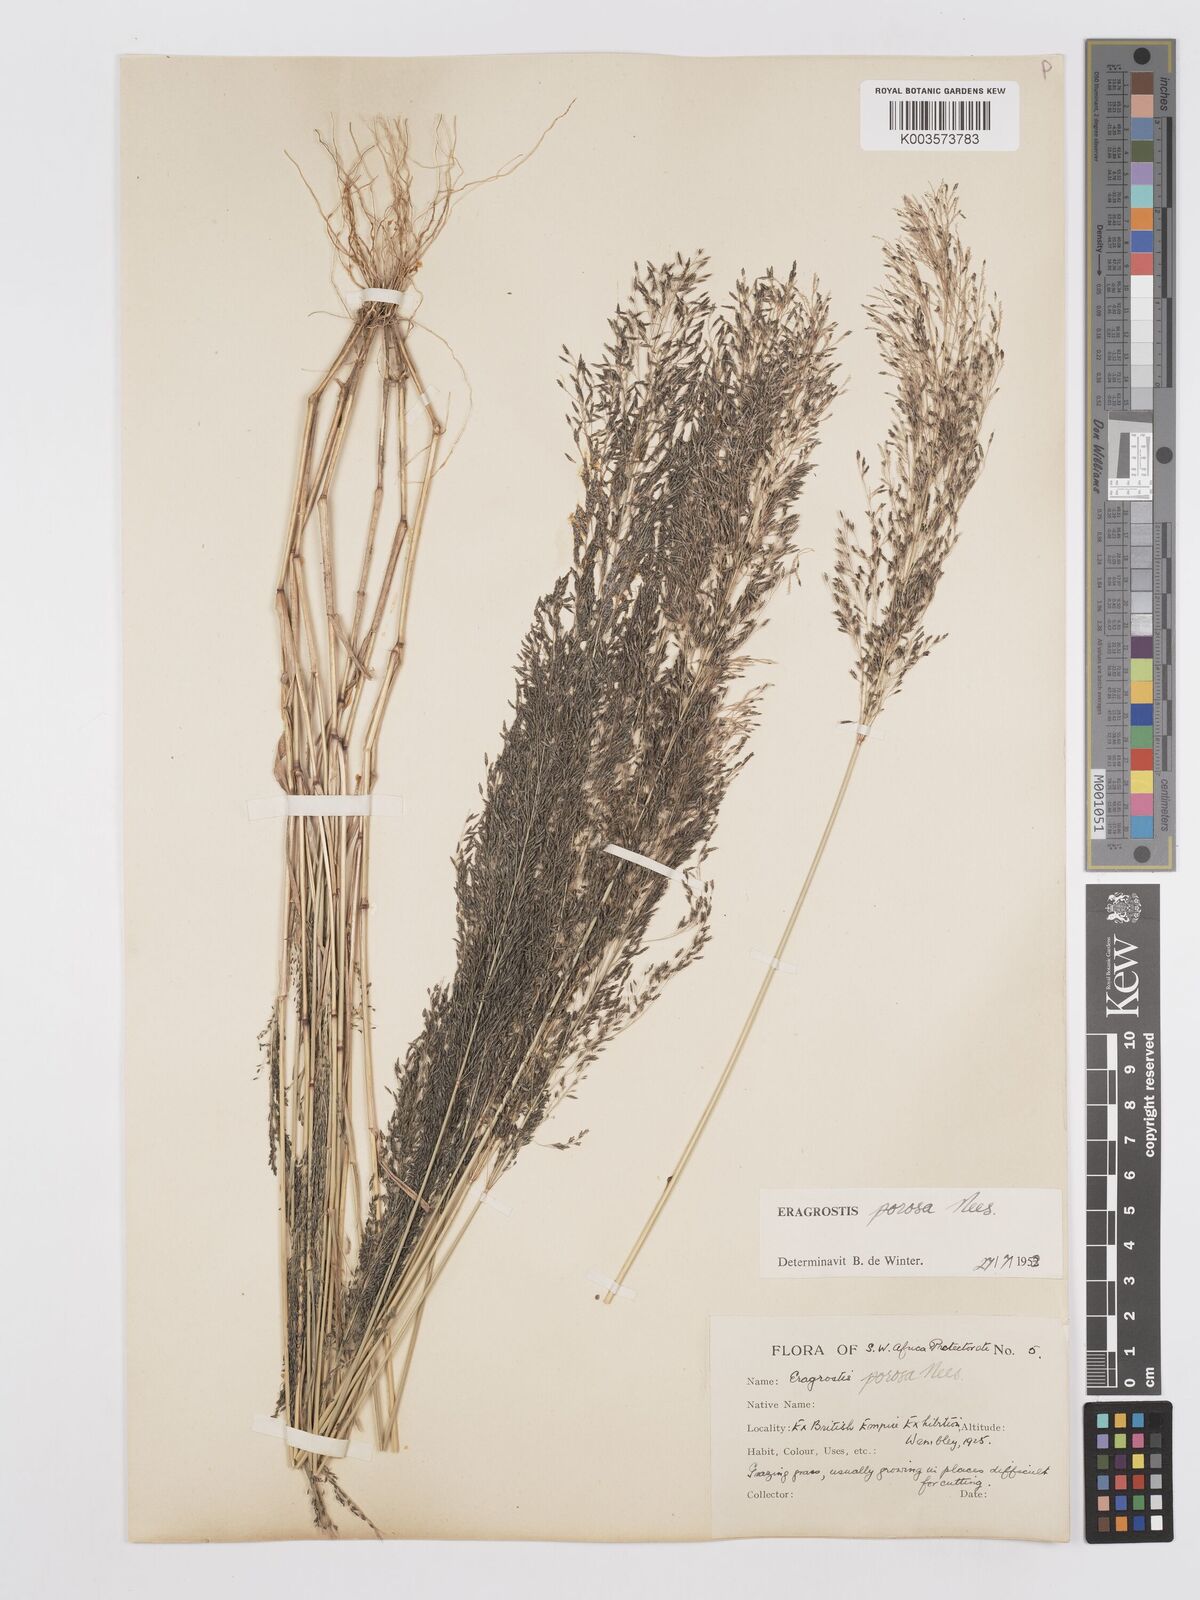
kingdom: Plantae
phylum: Tracheophyta
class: Liliopsida
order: Poales
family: Poaceae
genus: Eragrostis
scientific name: Eragrostis porosa
